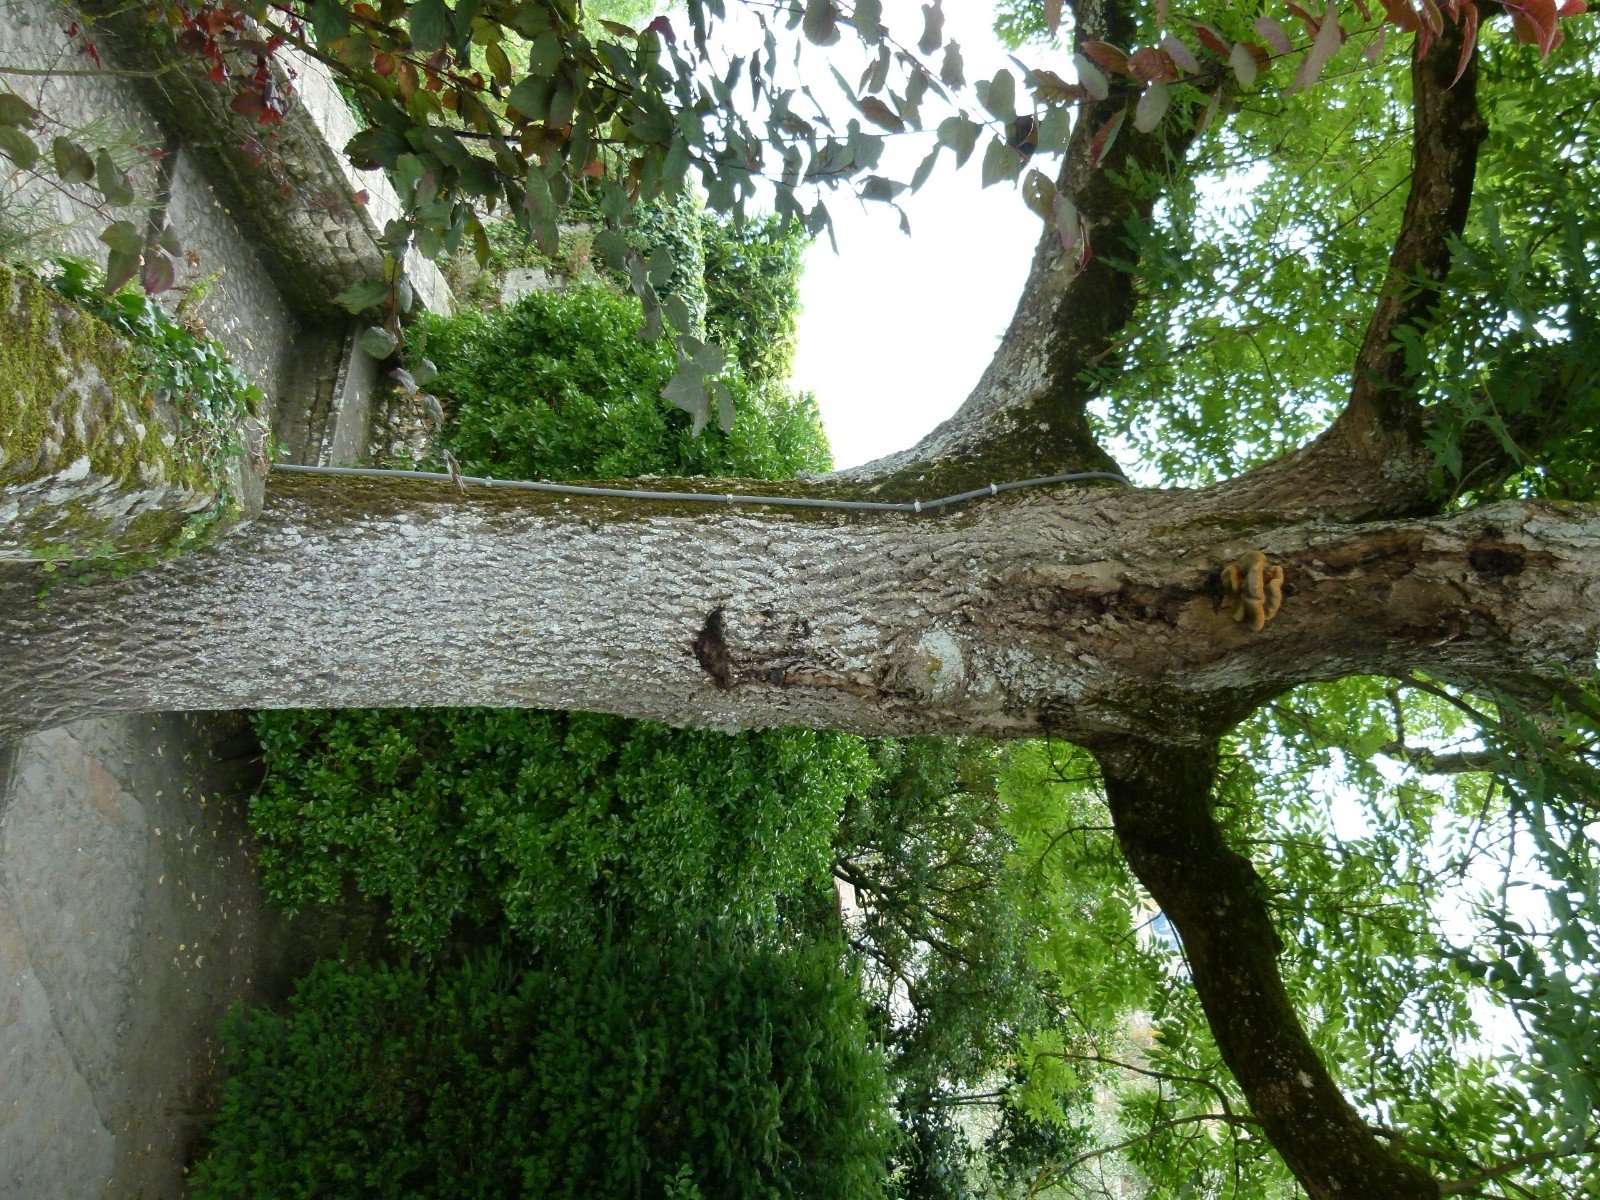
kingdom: Fungi
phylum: Basidiomycota
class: Agaricomycetes
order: Hymenochaetales
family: Hymenochaetaceae
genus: Inonotus
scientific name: Inonotus hispidus
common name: børstehåret spejlporesvamp
